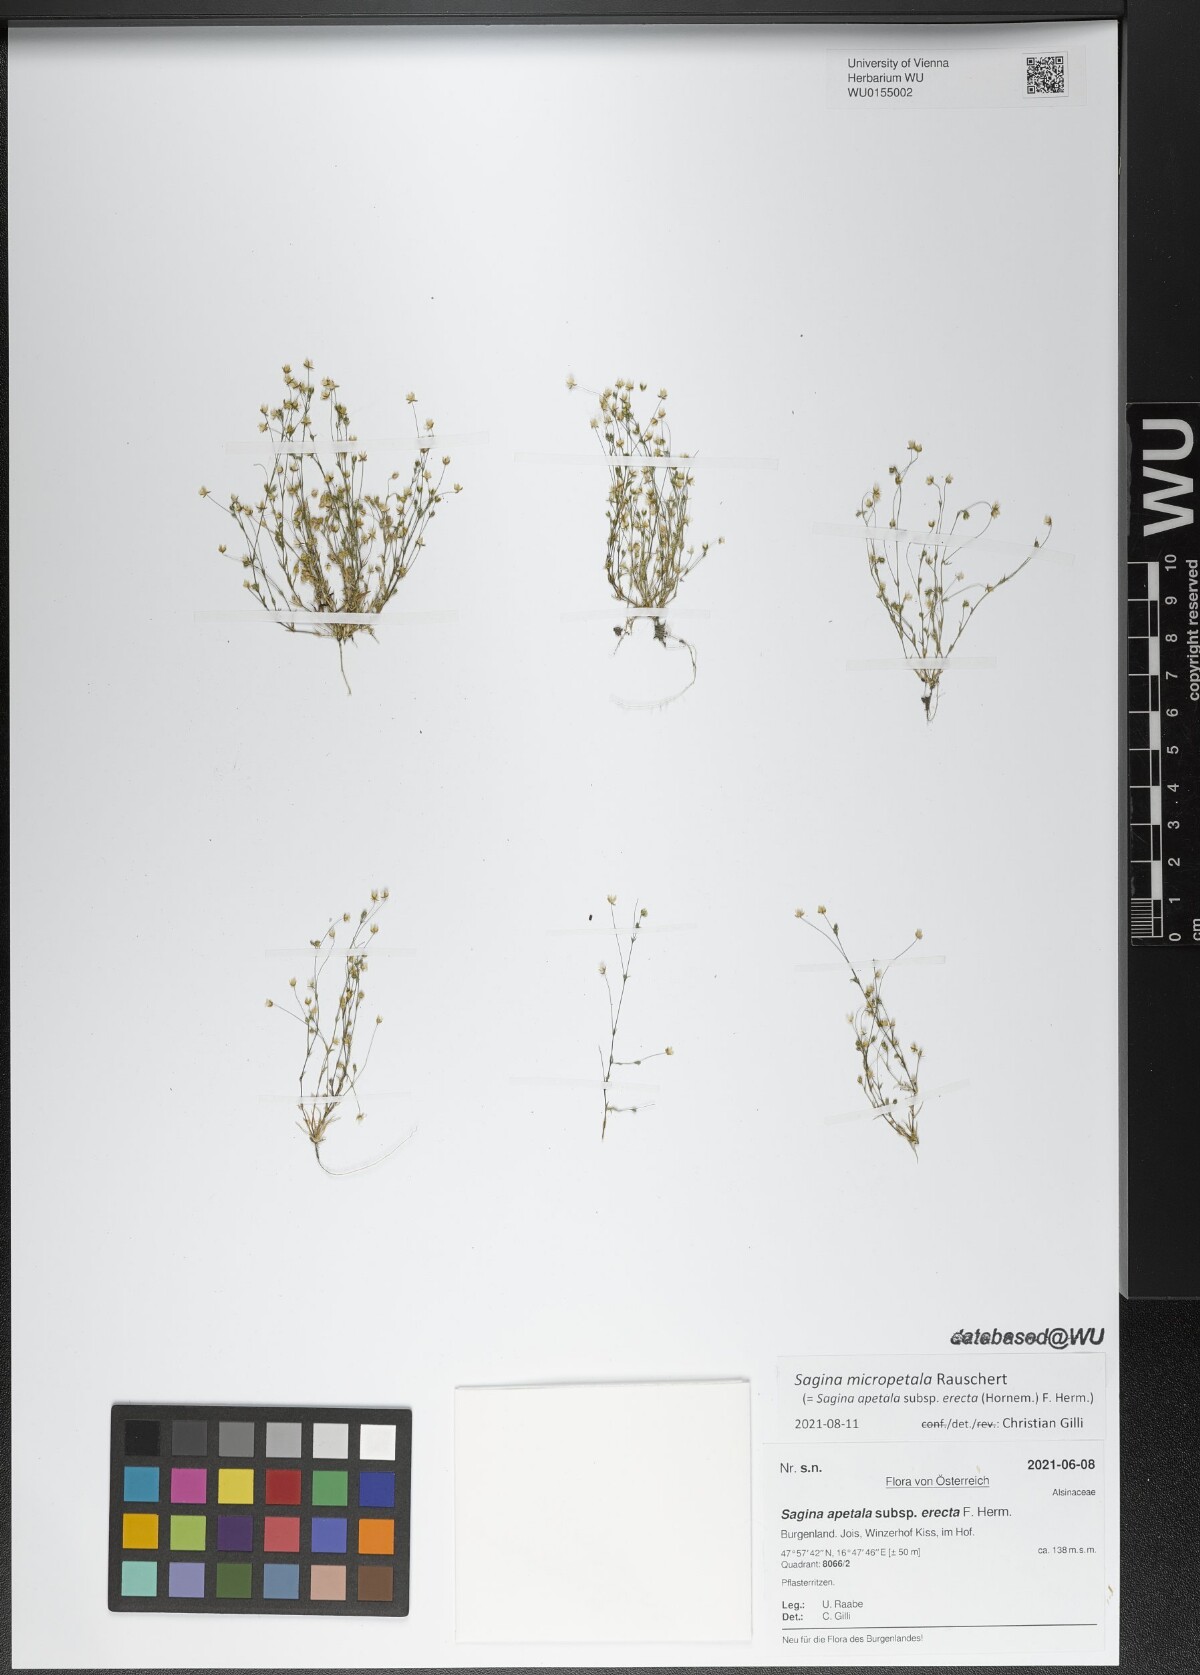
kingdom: Plantae
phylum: Tracheophyta
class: Magnoliopsida
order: Caryophyllales
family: Caryophyllaceae
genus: Sagina
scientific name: Sagina micropetala
